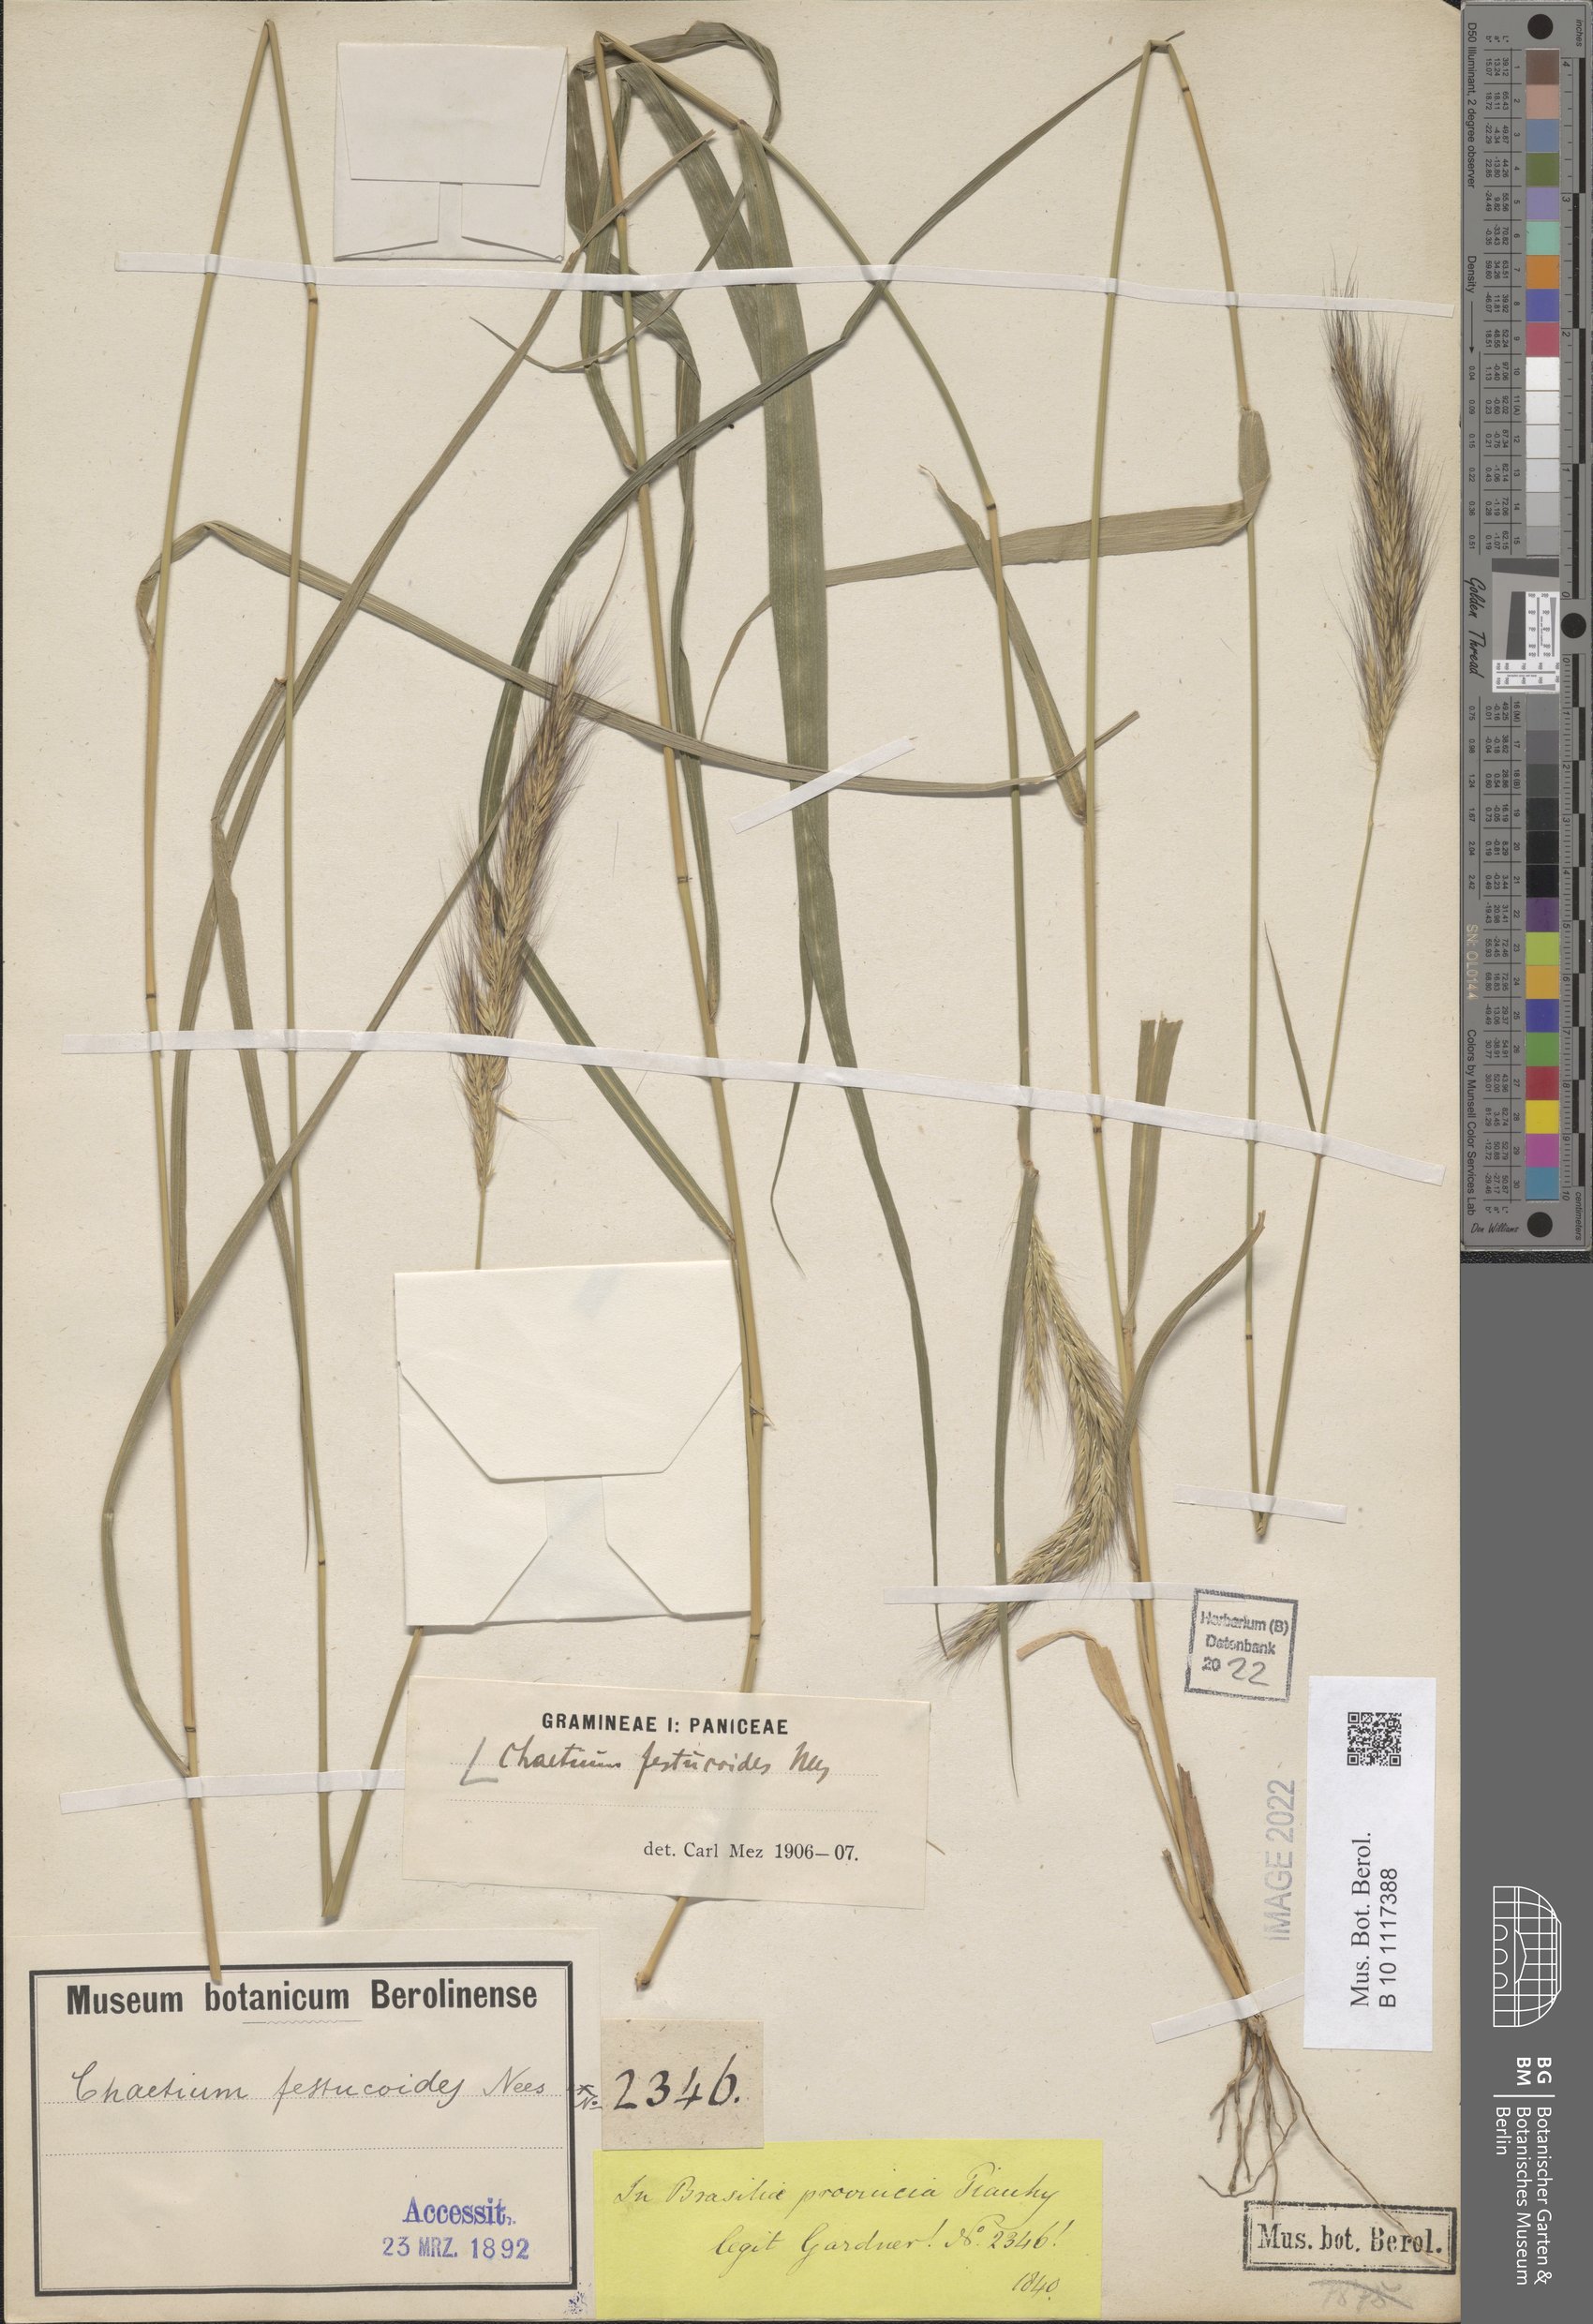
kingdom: Plantae
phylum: Tracheophyta
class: Liliopsida
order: Poales
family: Poaceae
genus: Chaetium
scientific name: Chaetium festucoides
